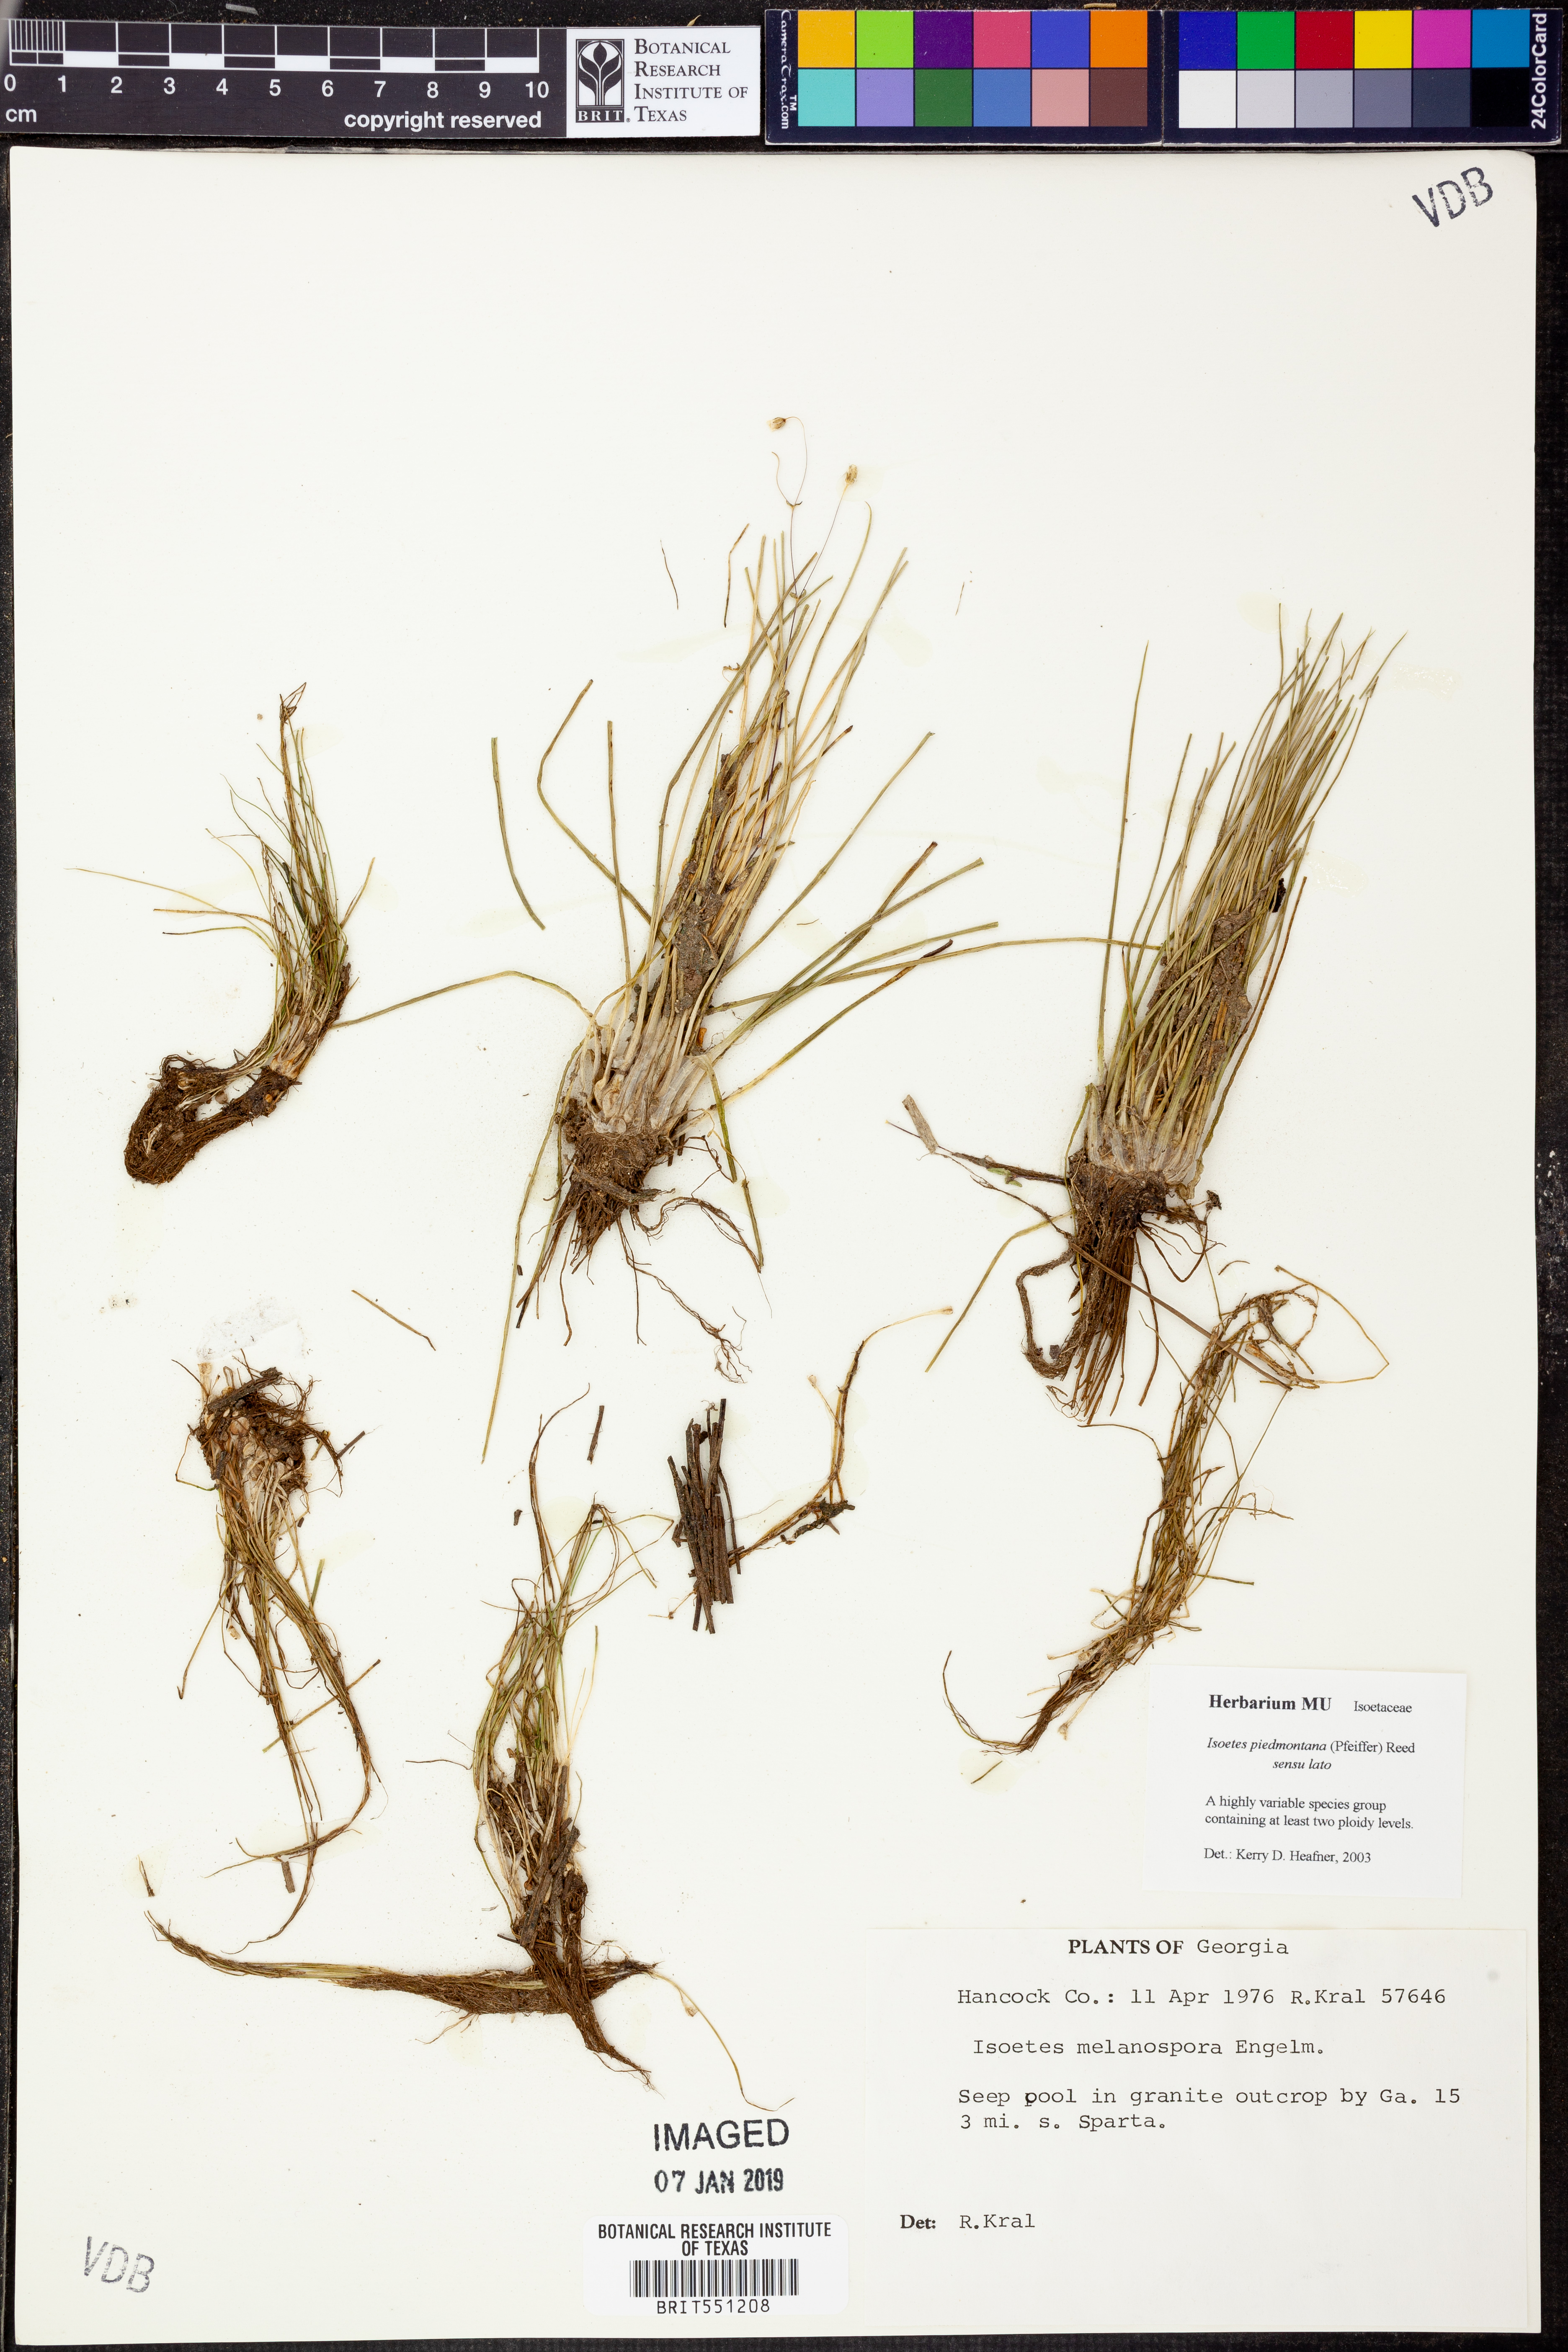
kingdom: Plantae
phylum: Tracheophyta
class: Lycopodiopsida
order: Isoetales
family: Isoetaceae
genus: Isoetes
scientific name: Isoetes virginica
